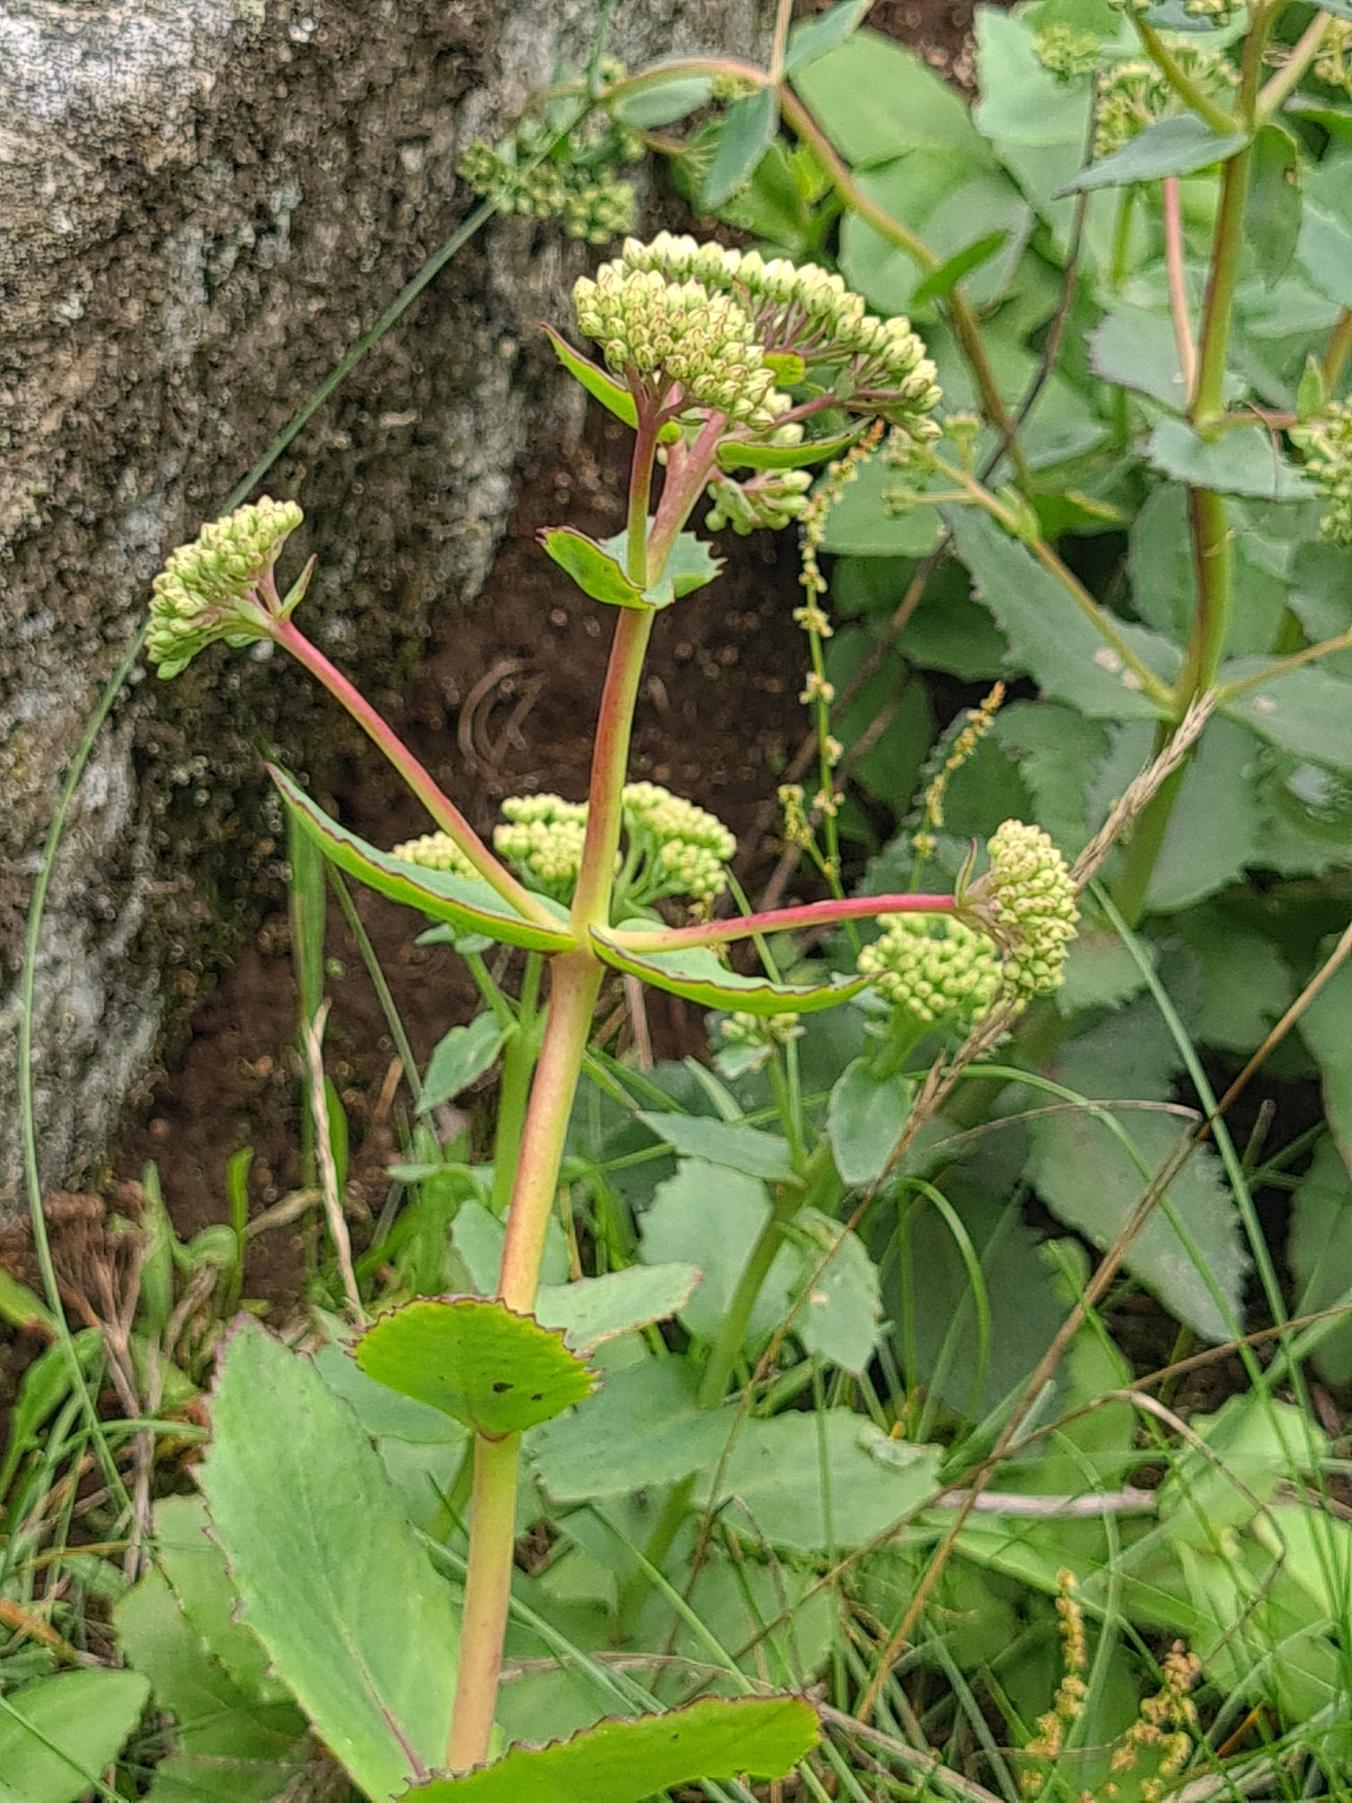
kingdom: Plantae
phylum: Tracheophyta
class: Magnoliopsida
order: Saxifragales
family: Crassulaceae
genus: Hylotelephium
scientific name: Hylotelephium maximum
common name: Almindelig sankthansurt
